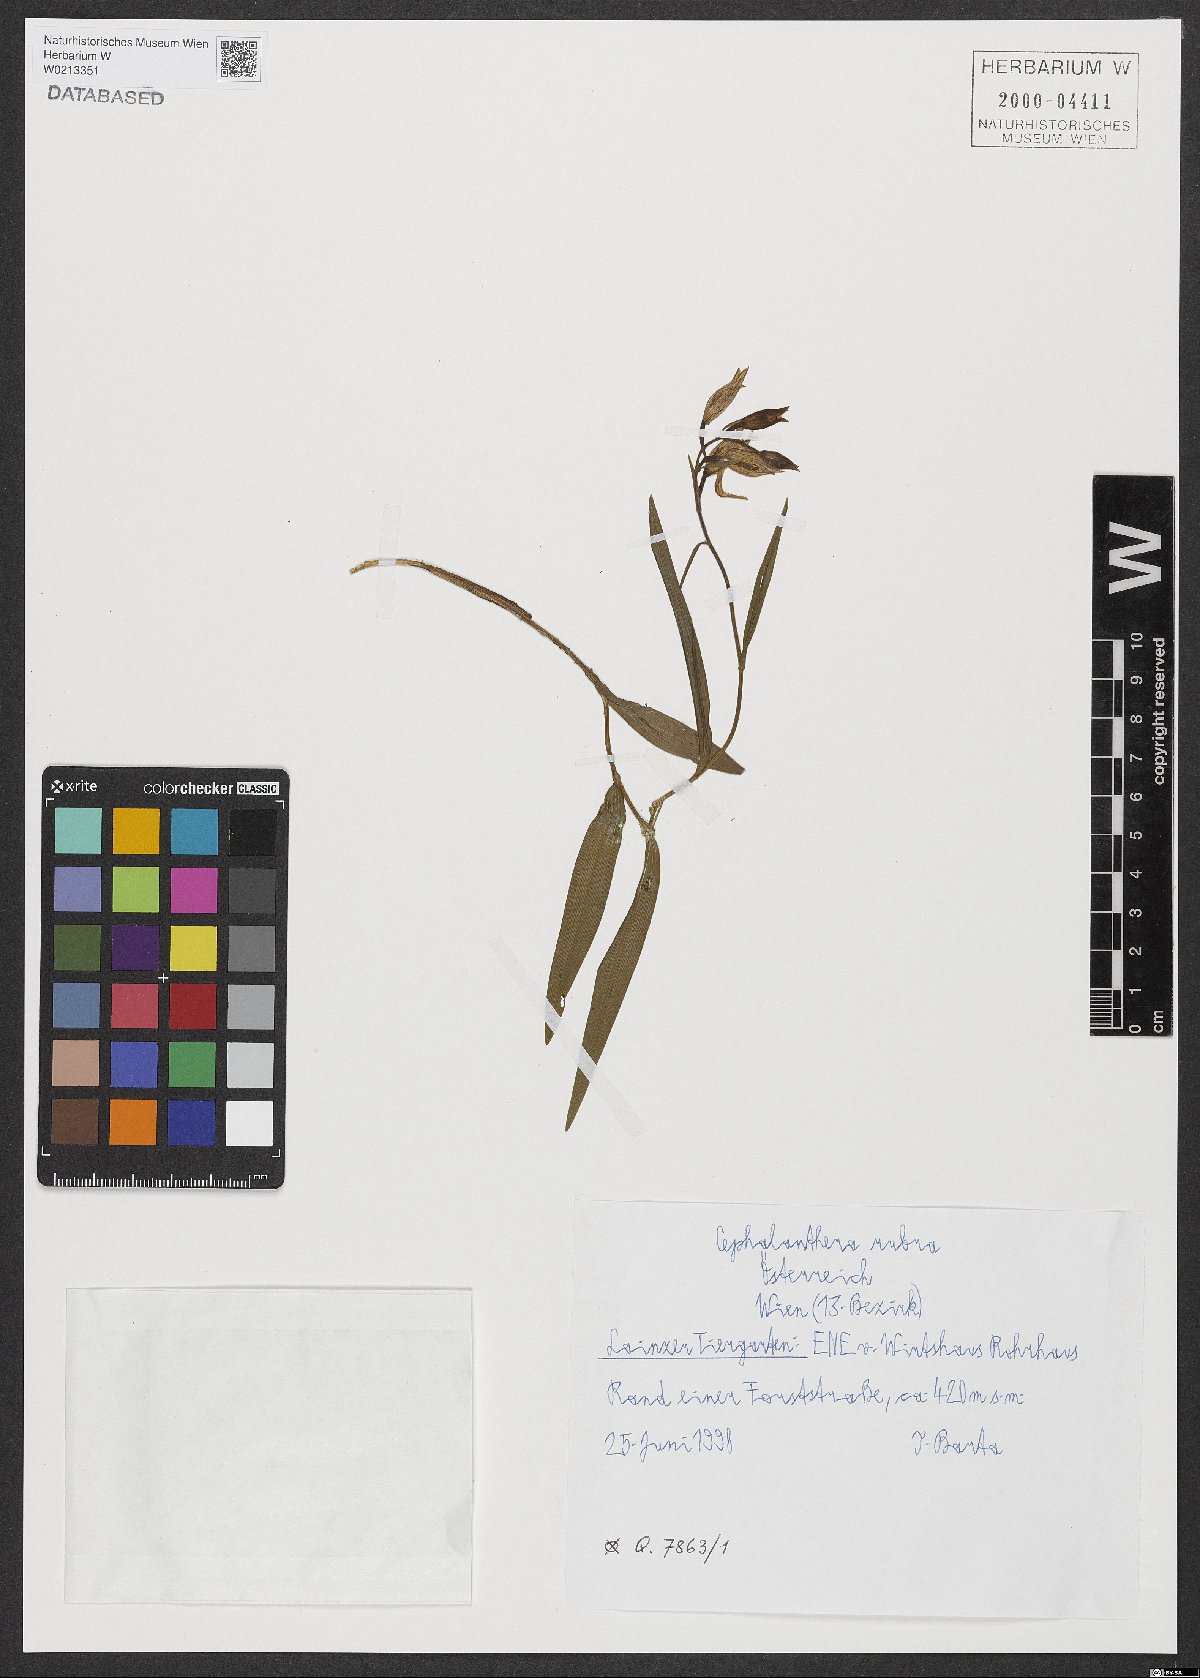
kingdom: Plantae
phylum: Tracheophyta
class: Liliopsida
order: Asparagales
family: Orchidaceae
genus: Cephalanthera
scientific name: Cephalanthera rubra
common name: Red helleborine
